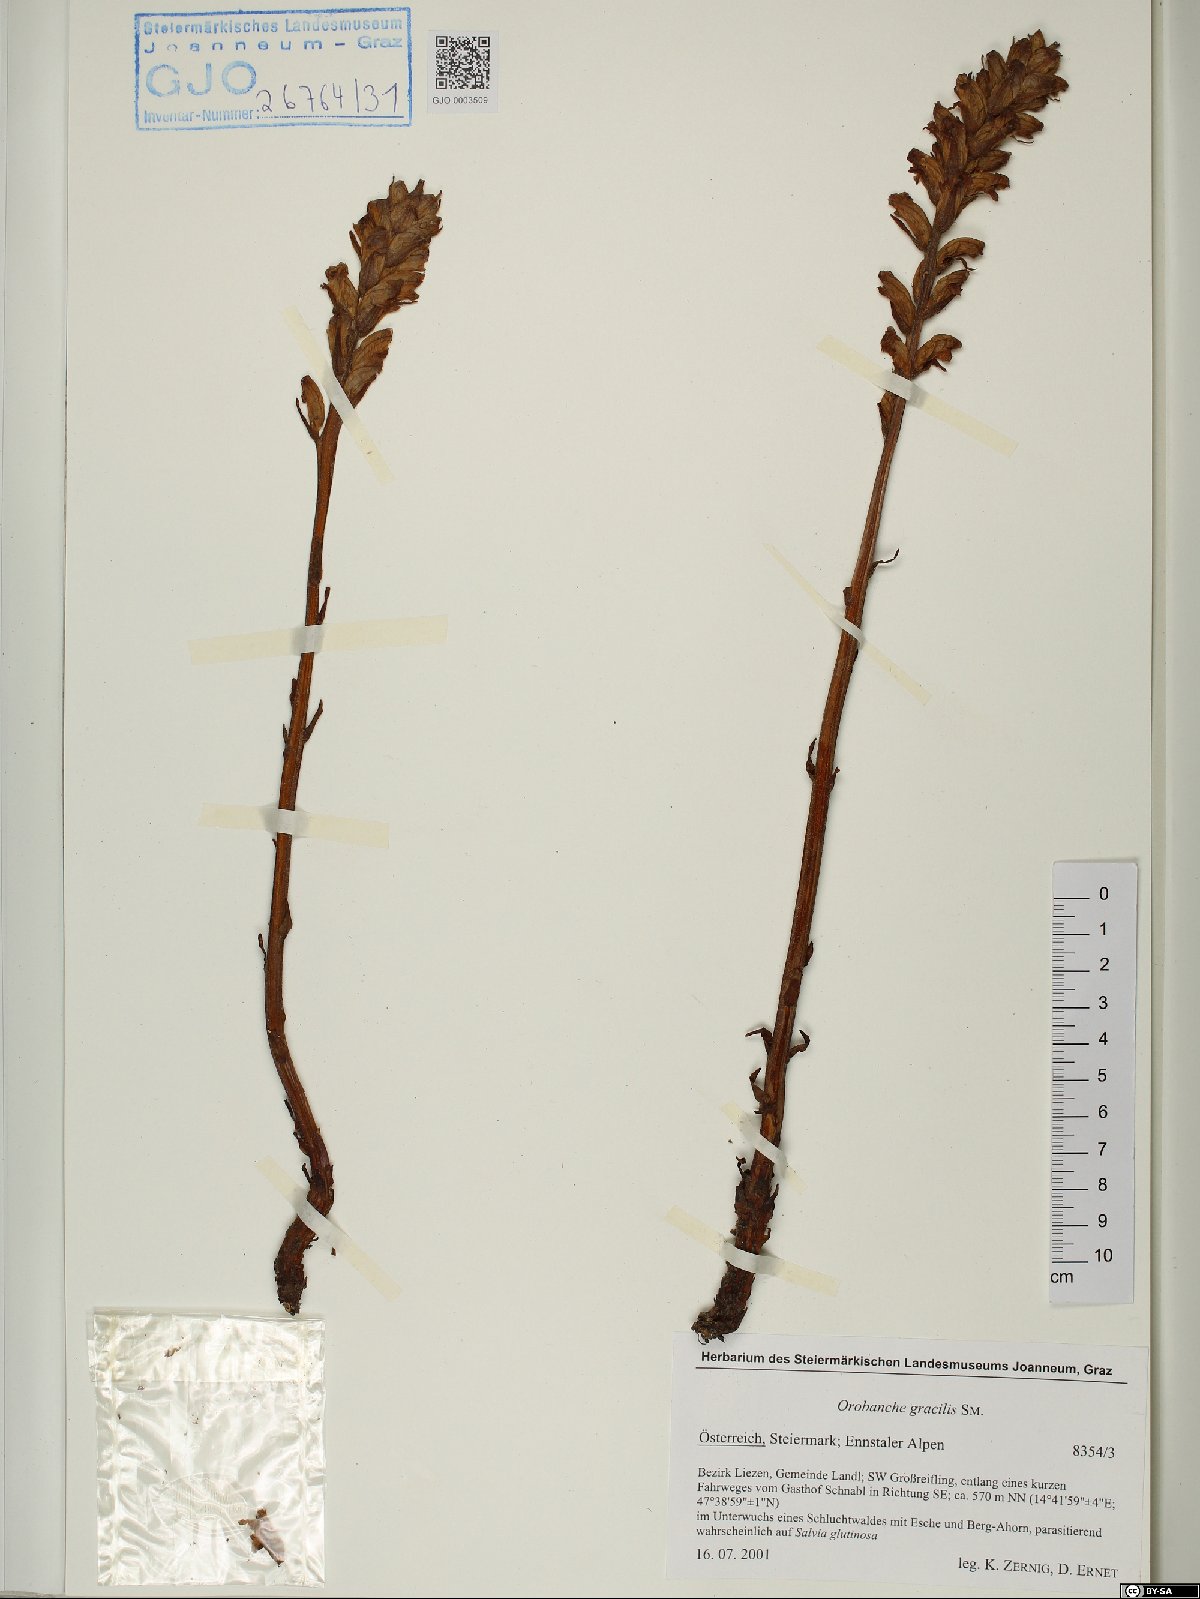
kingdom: Plantae
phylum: Tracheophyta
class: Magnoliopsida
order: Lamiales
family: Orobanchaceae
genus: Orobanche
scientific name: Orobanche gracilis
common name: Slender broomrape
